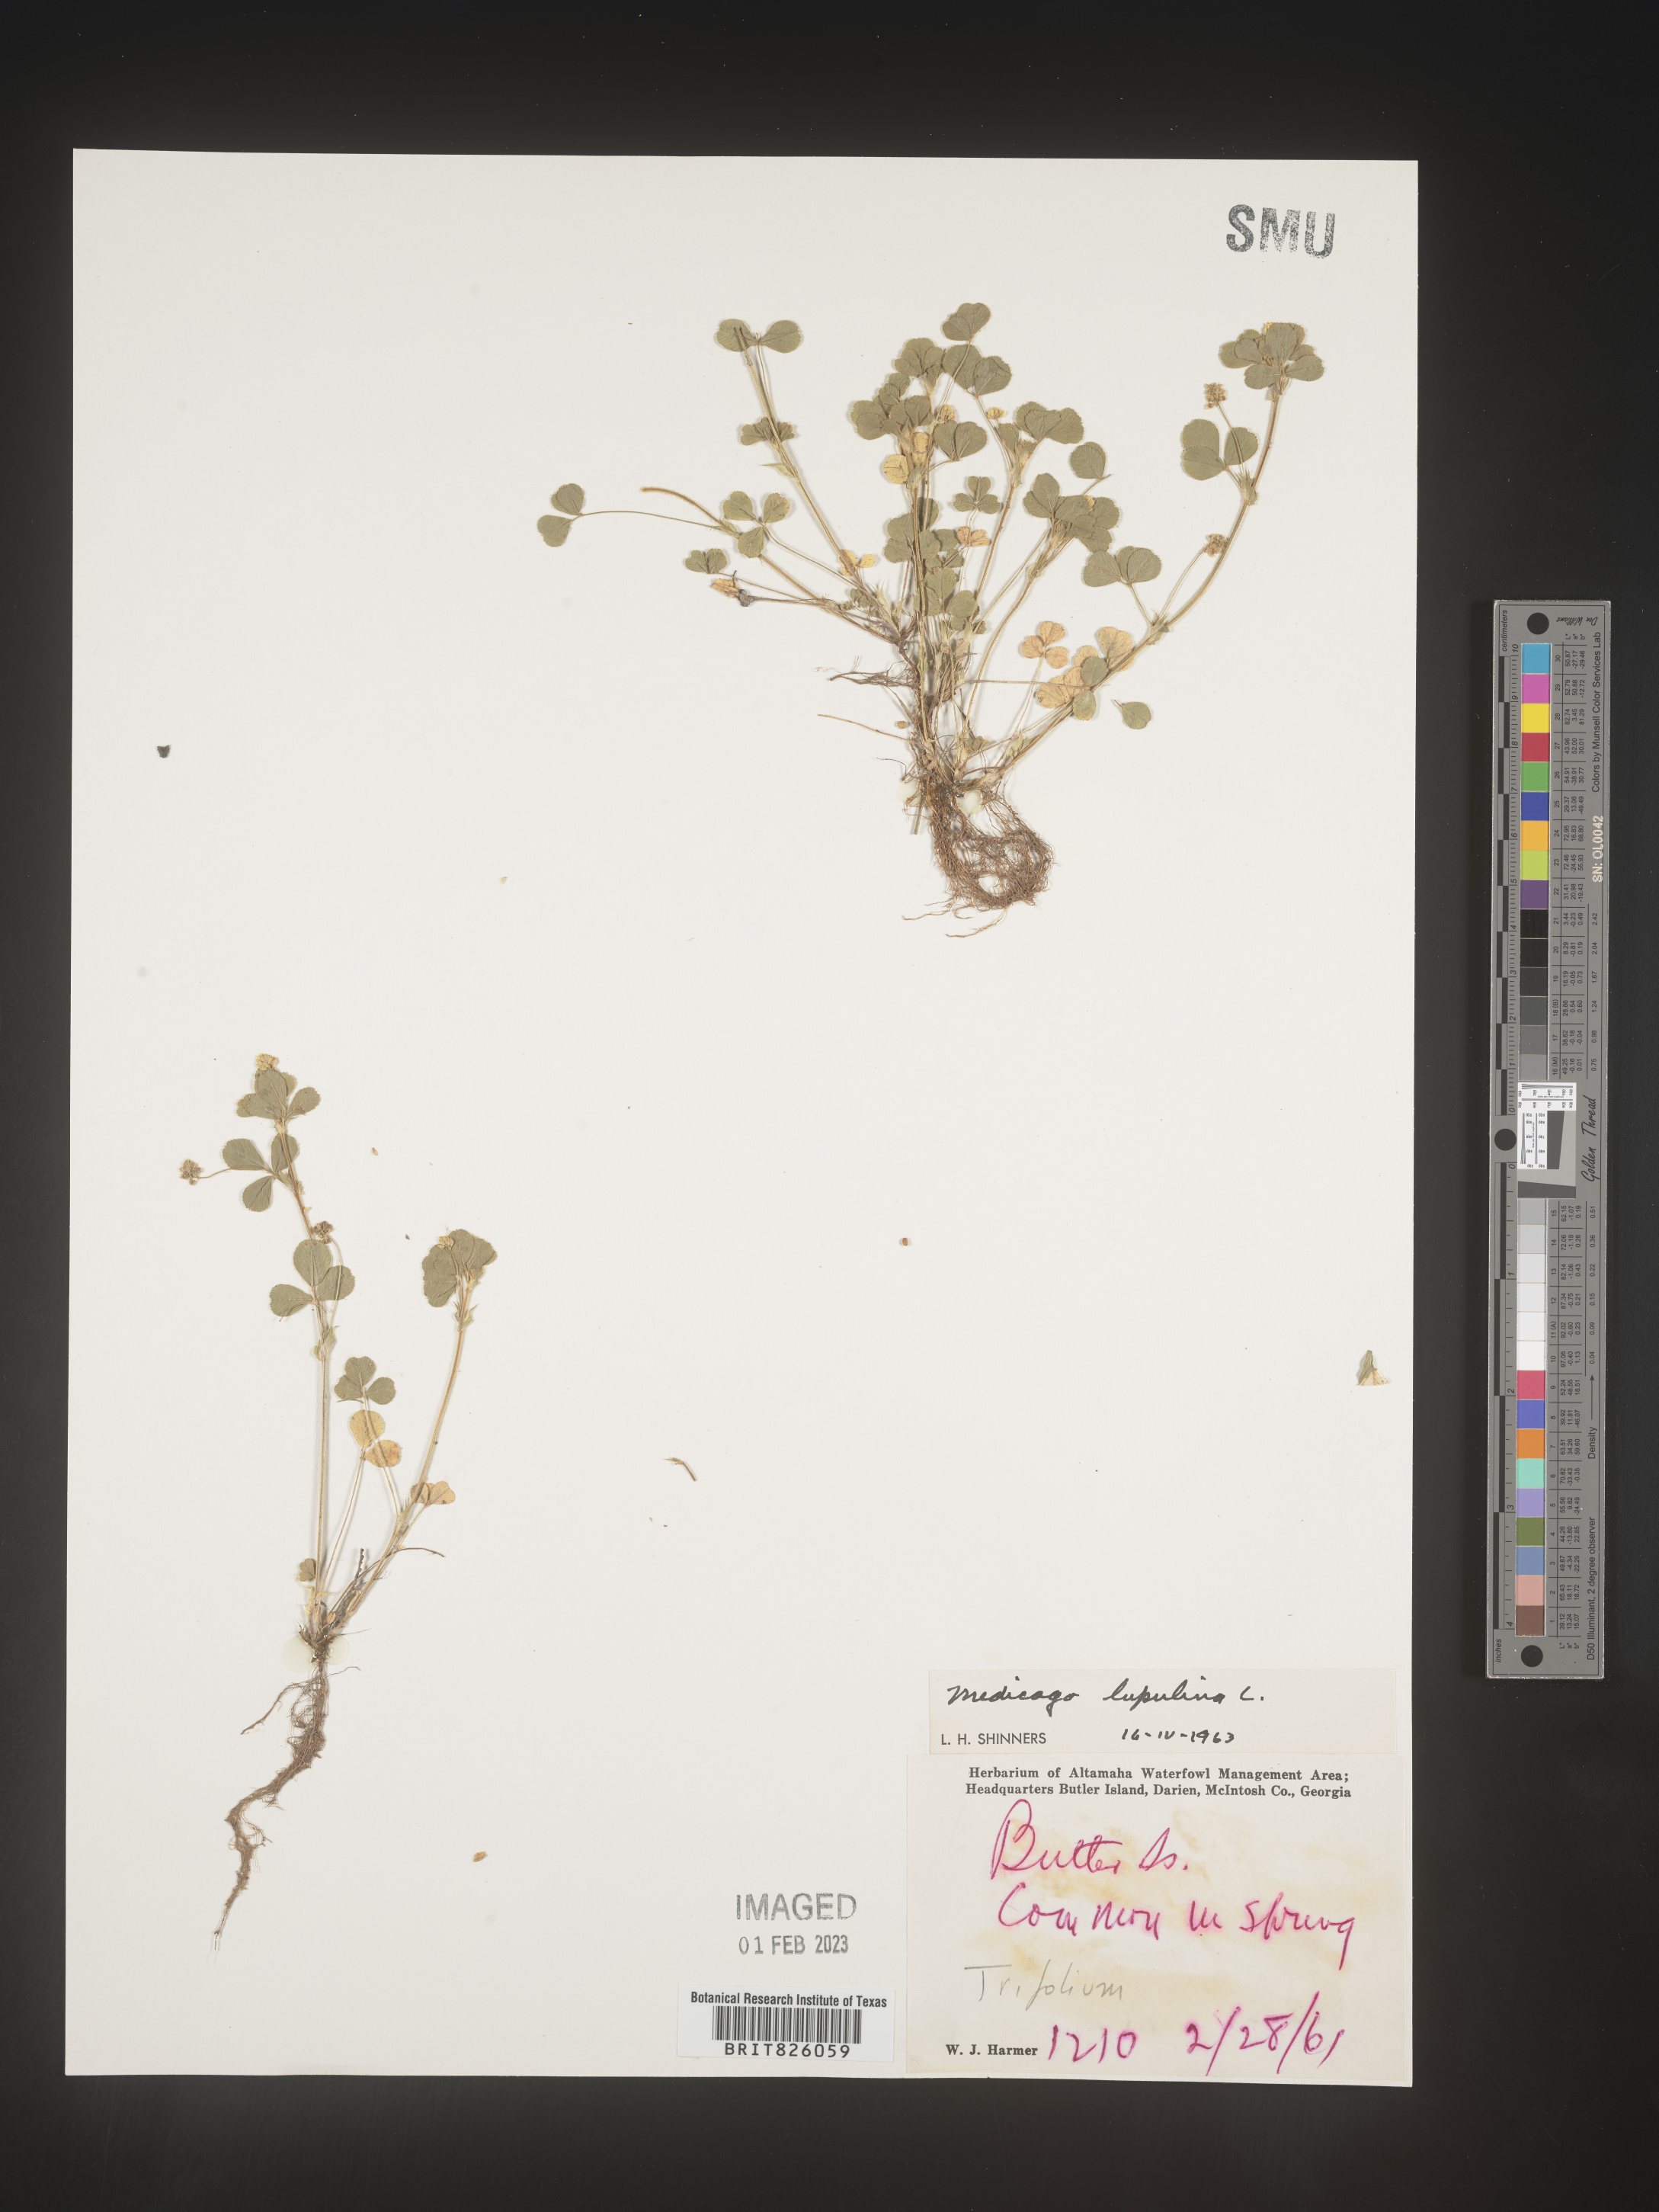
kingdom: Plantae
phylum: Tracheophyta
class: Magnoliopsida
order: Fabales
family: Fabaceae
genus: Medicago
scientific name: Medicago lupulina
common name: Black medick
